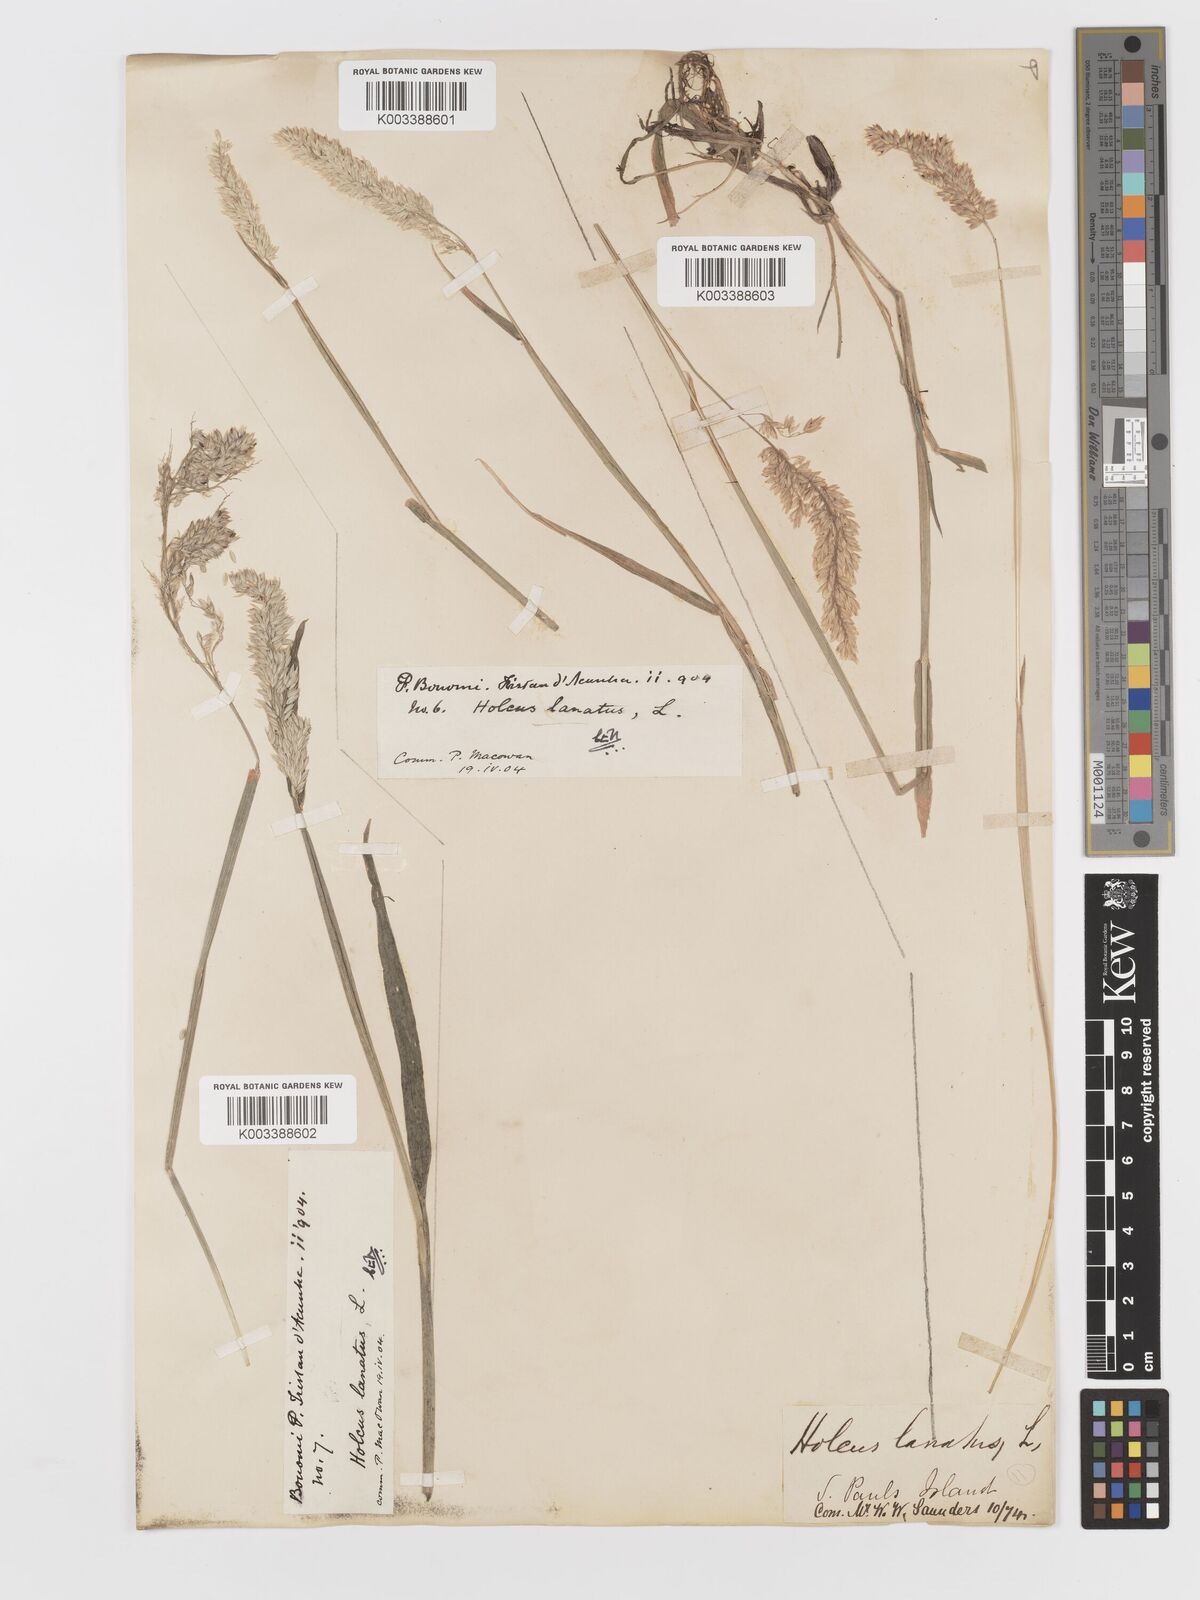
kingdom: Plantae
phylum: Tracheophyta
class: Liliopsida
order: Poales
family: Poaceae
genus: Holcus
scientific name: Holcus lanatus
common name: Yorkshire-fog
